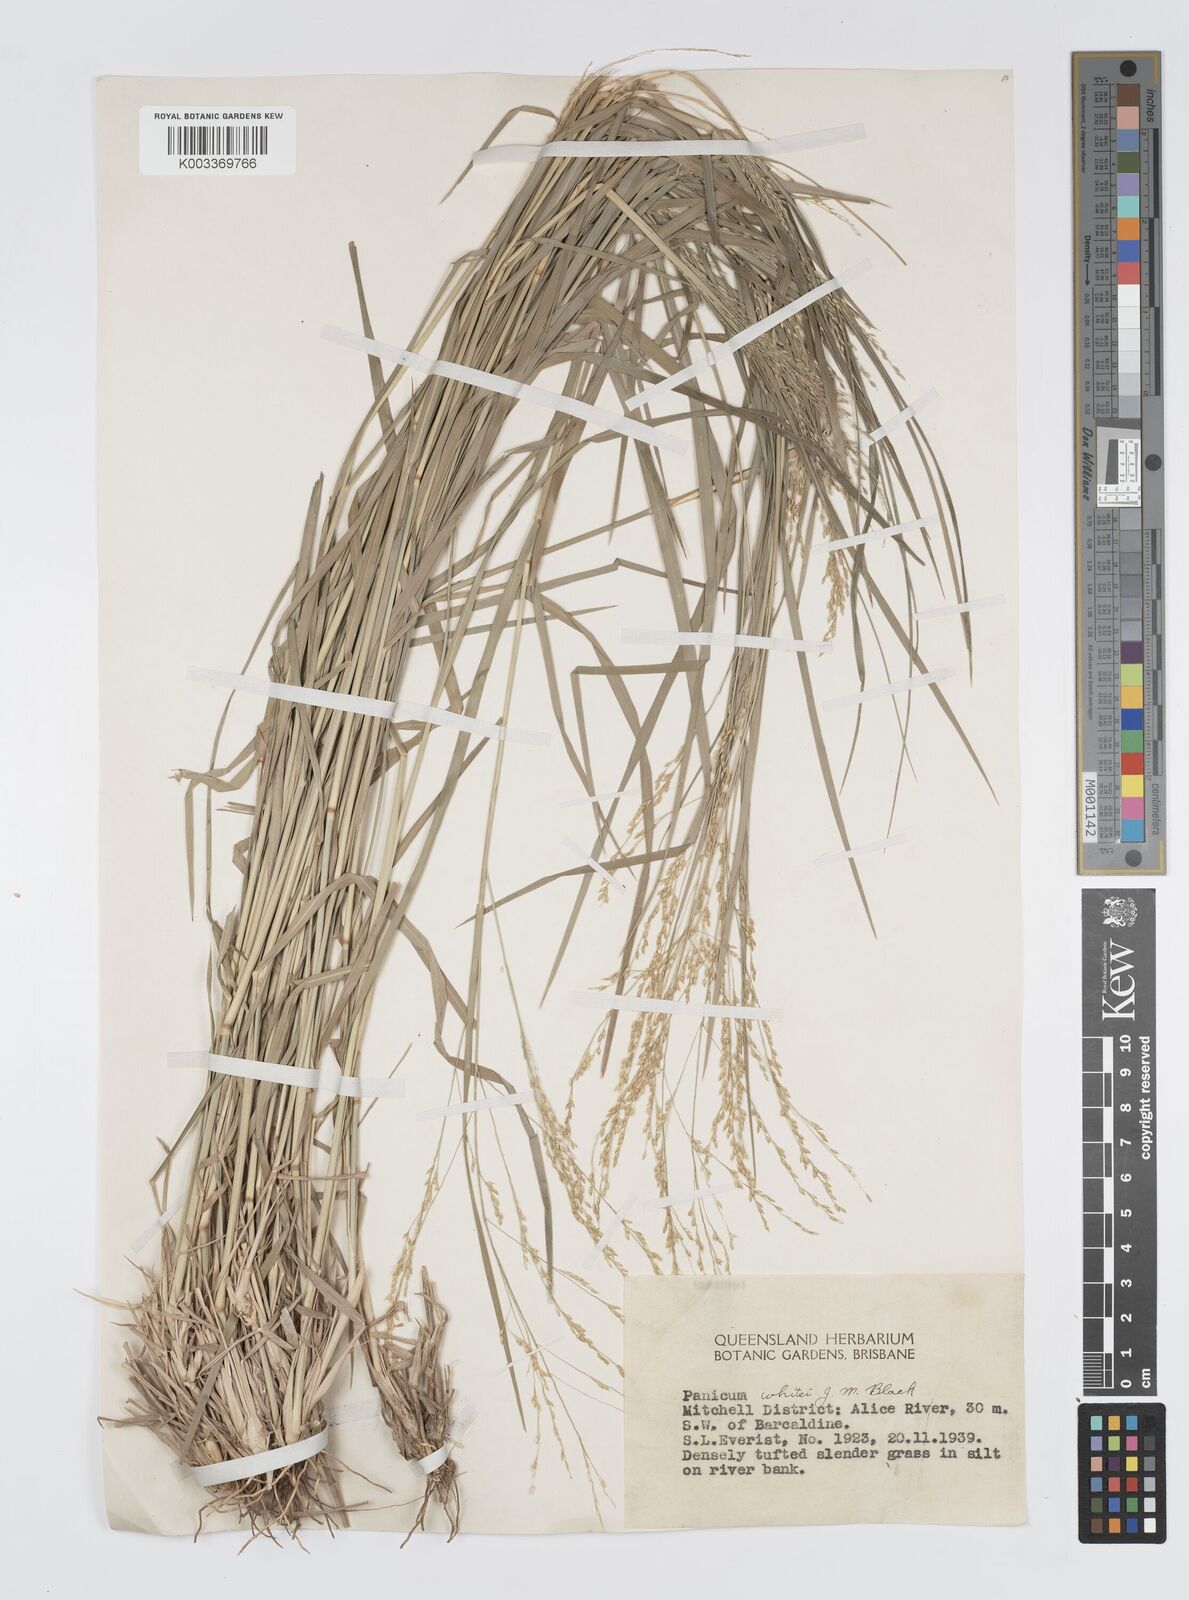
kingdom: Plantae
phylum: Tracheophyta
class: Liliopsida
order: Poales
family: Poaceae
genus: Panicum
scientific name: Panicum laevinode
